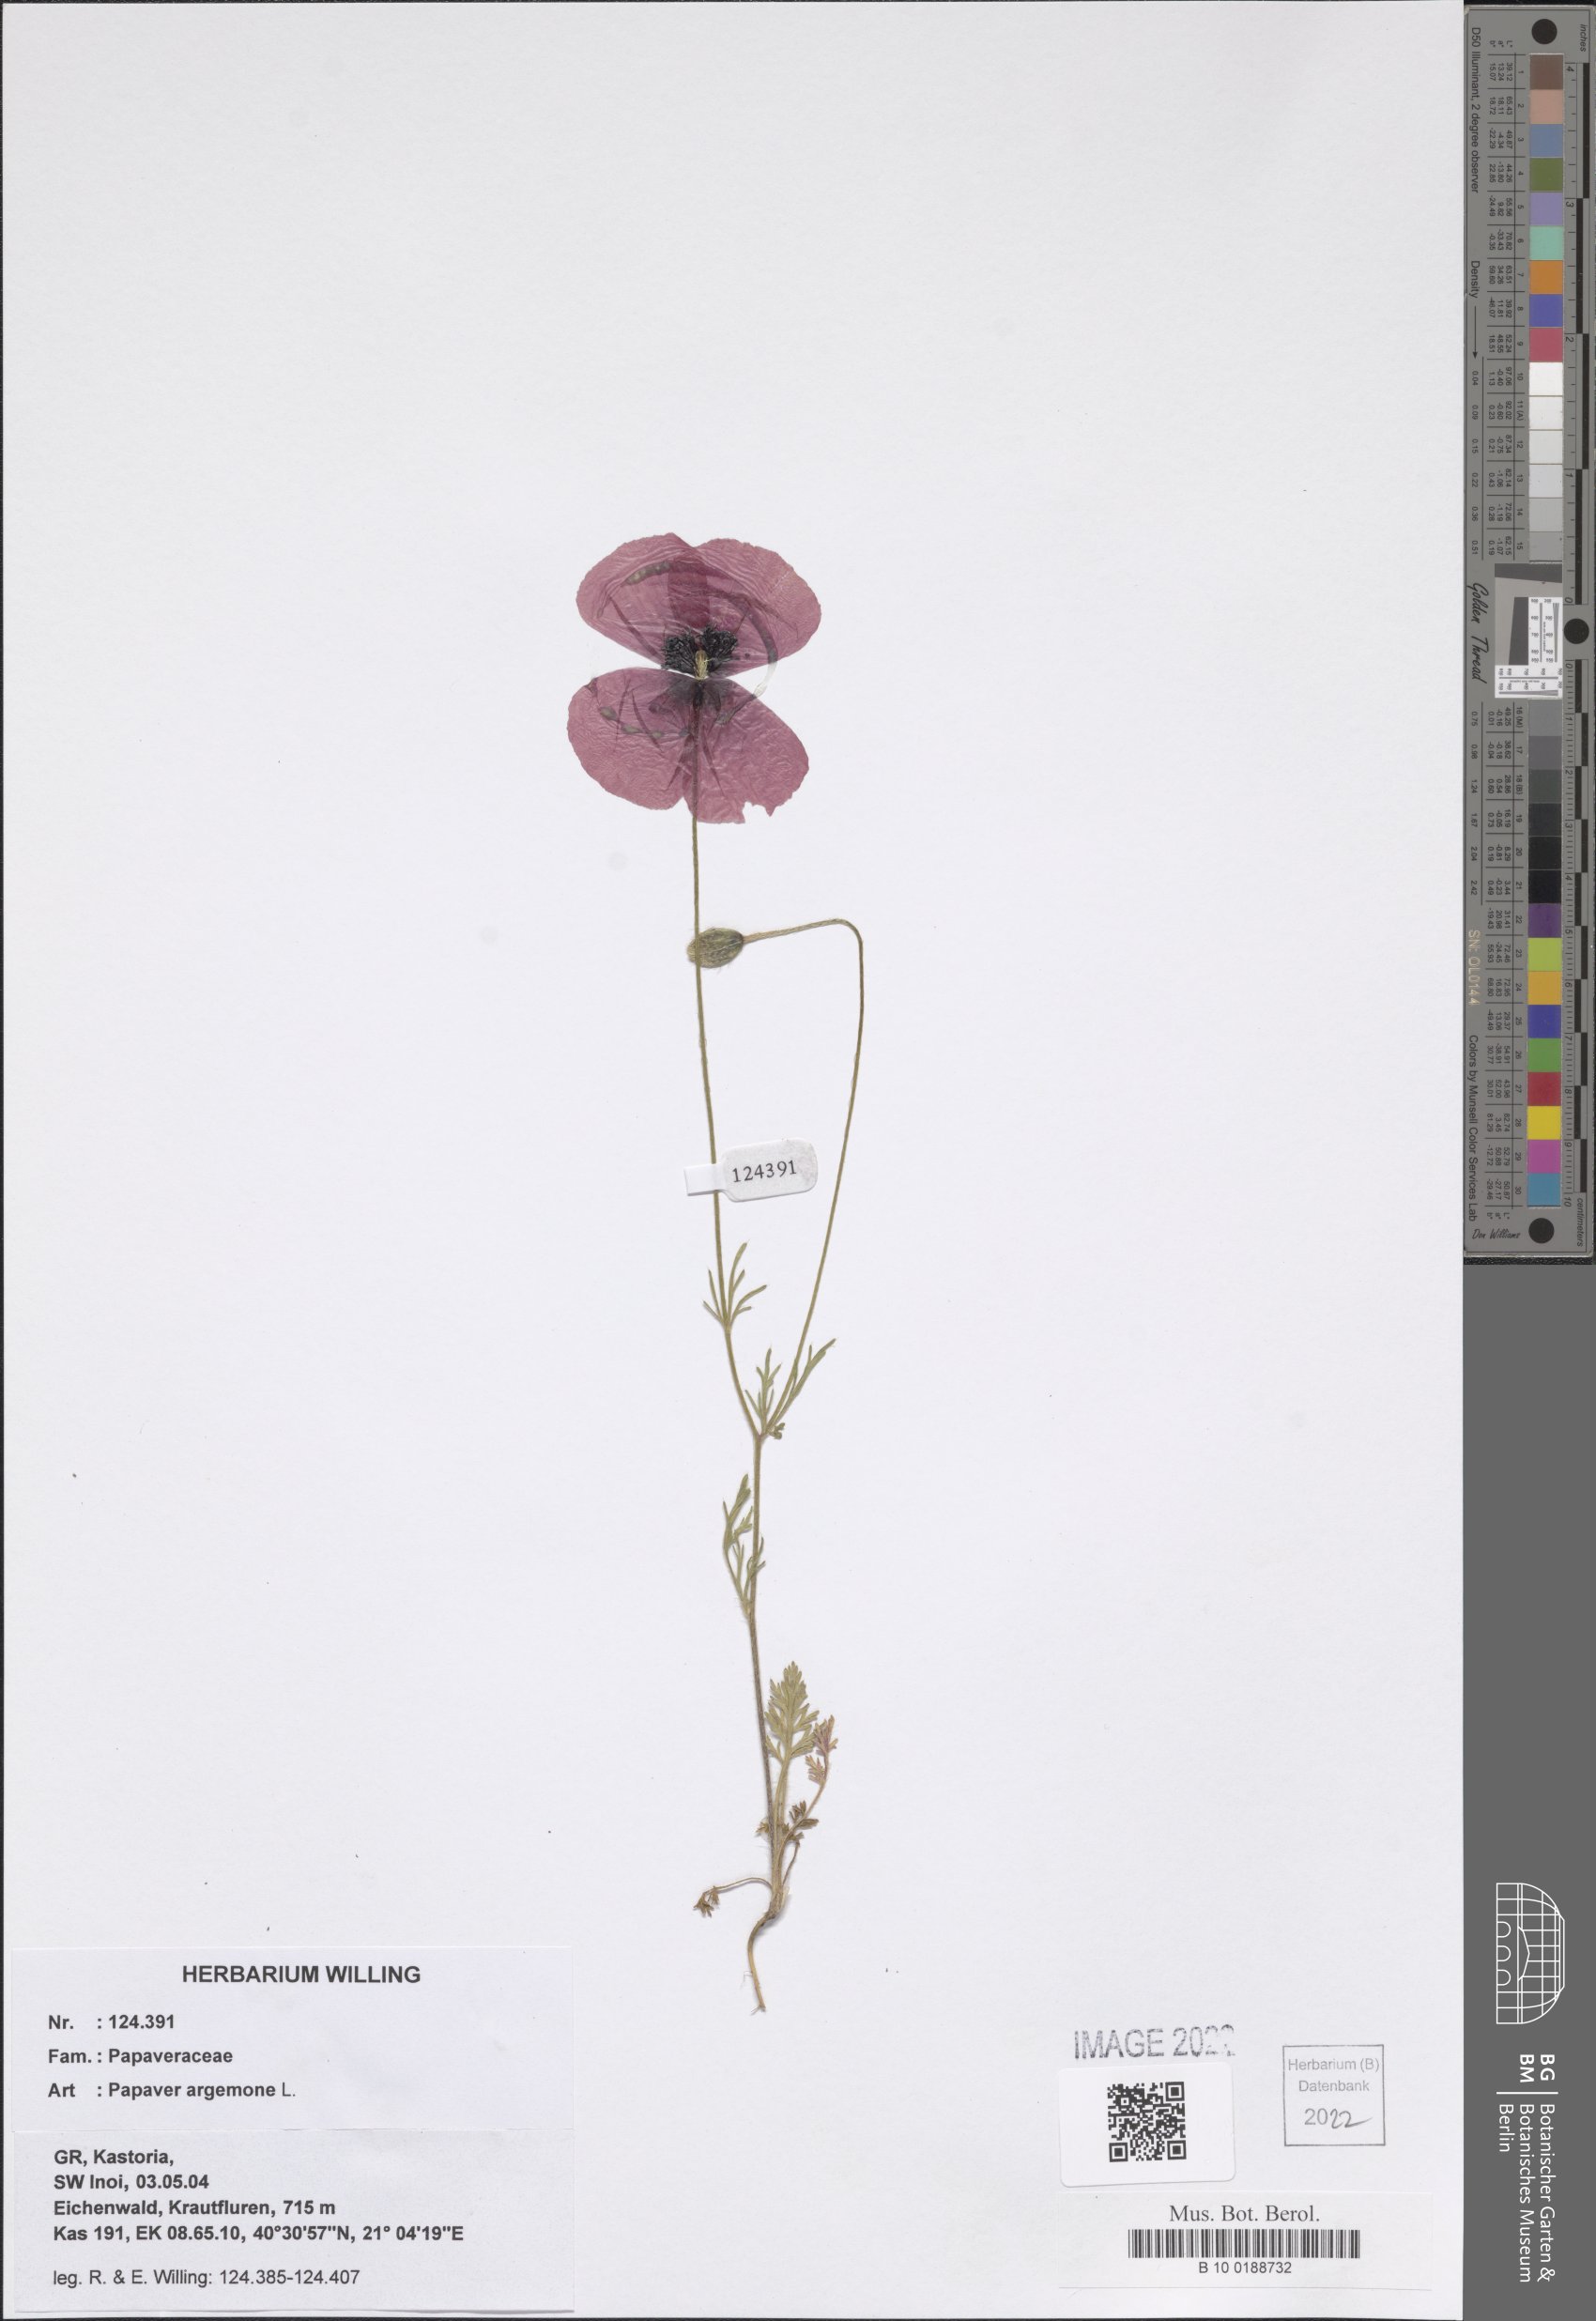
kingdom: Plantae
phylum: Tracheophyta
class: Magnoliopsida
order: Ranunculales
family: Papaveraceae
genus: Roemeria
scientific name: Roemeria argemone
